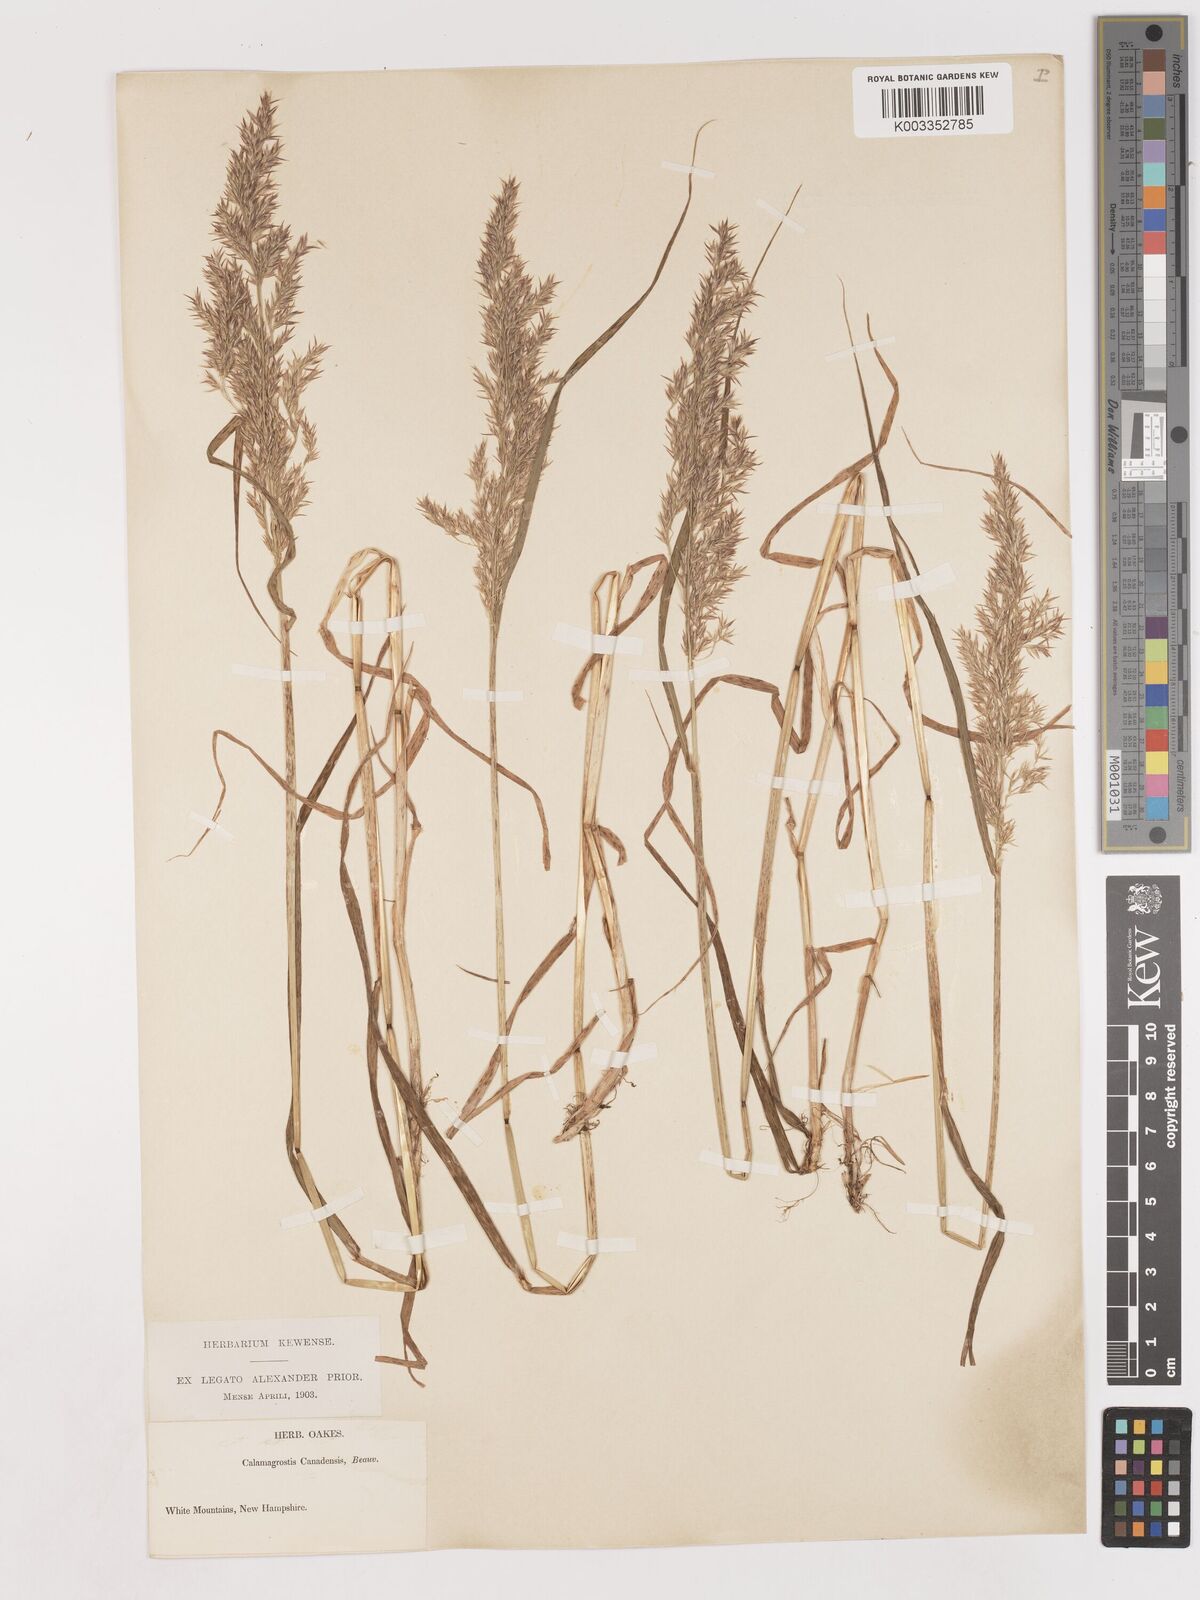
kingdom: Plantae
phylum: Tracheophyta
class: Liliopsida
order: Poales
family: Poaceae
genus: Calamagrostis
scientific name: Calamagrostis canadensis
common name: Canada bluejoint
